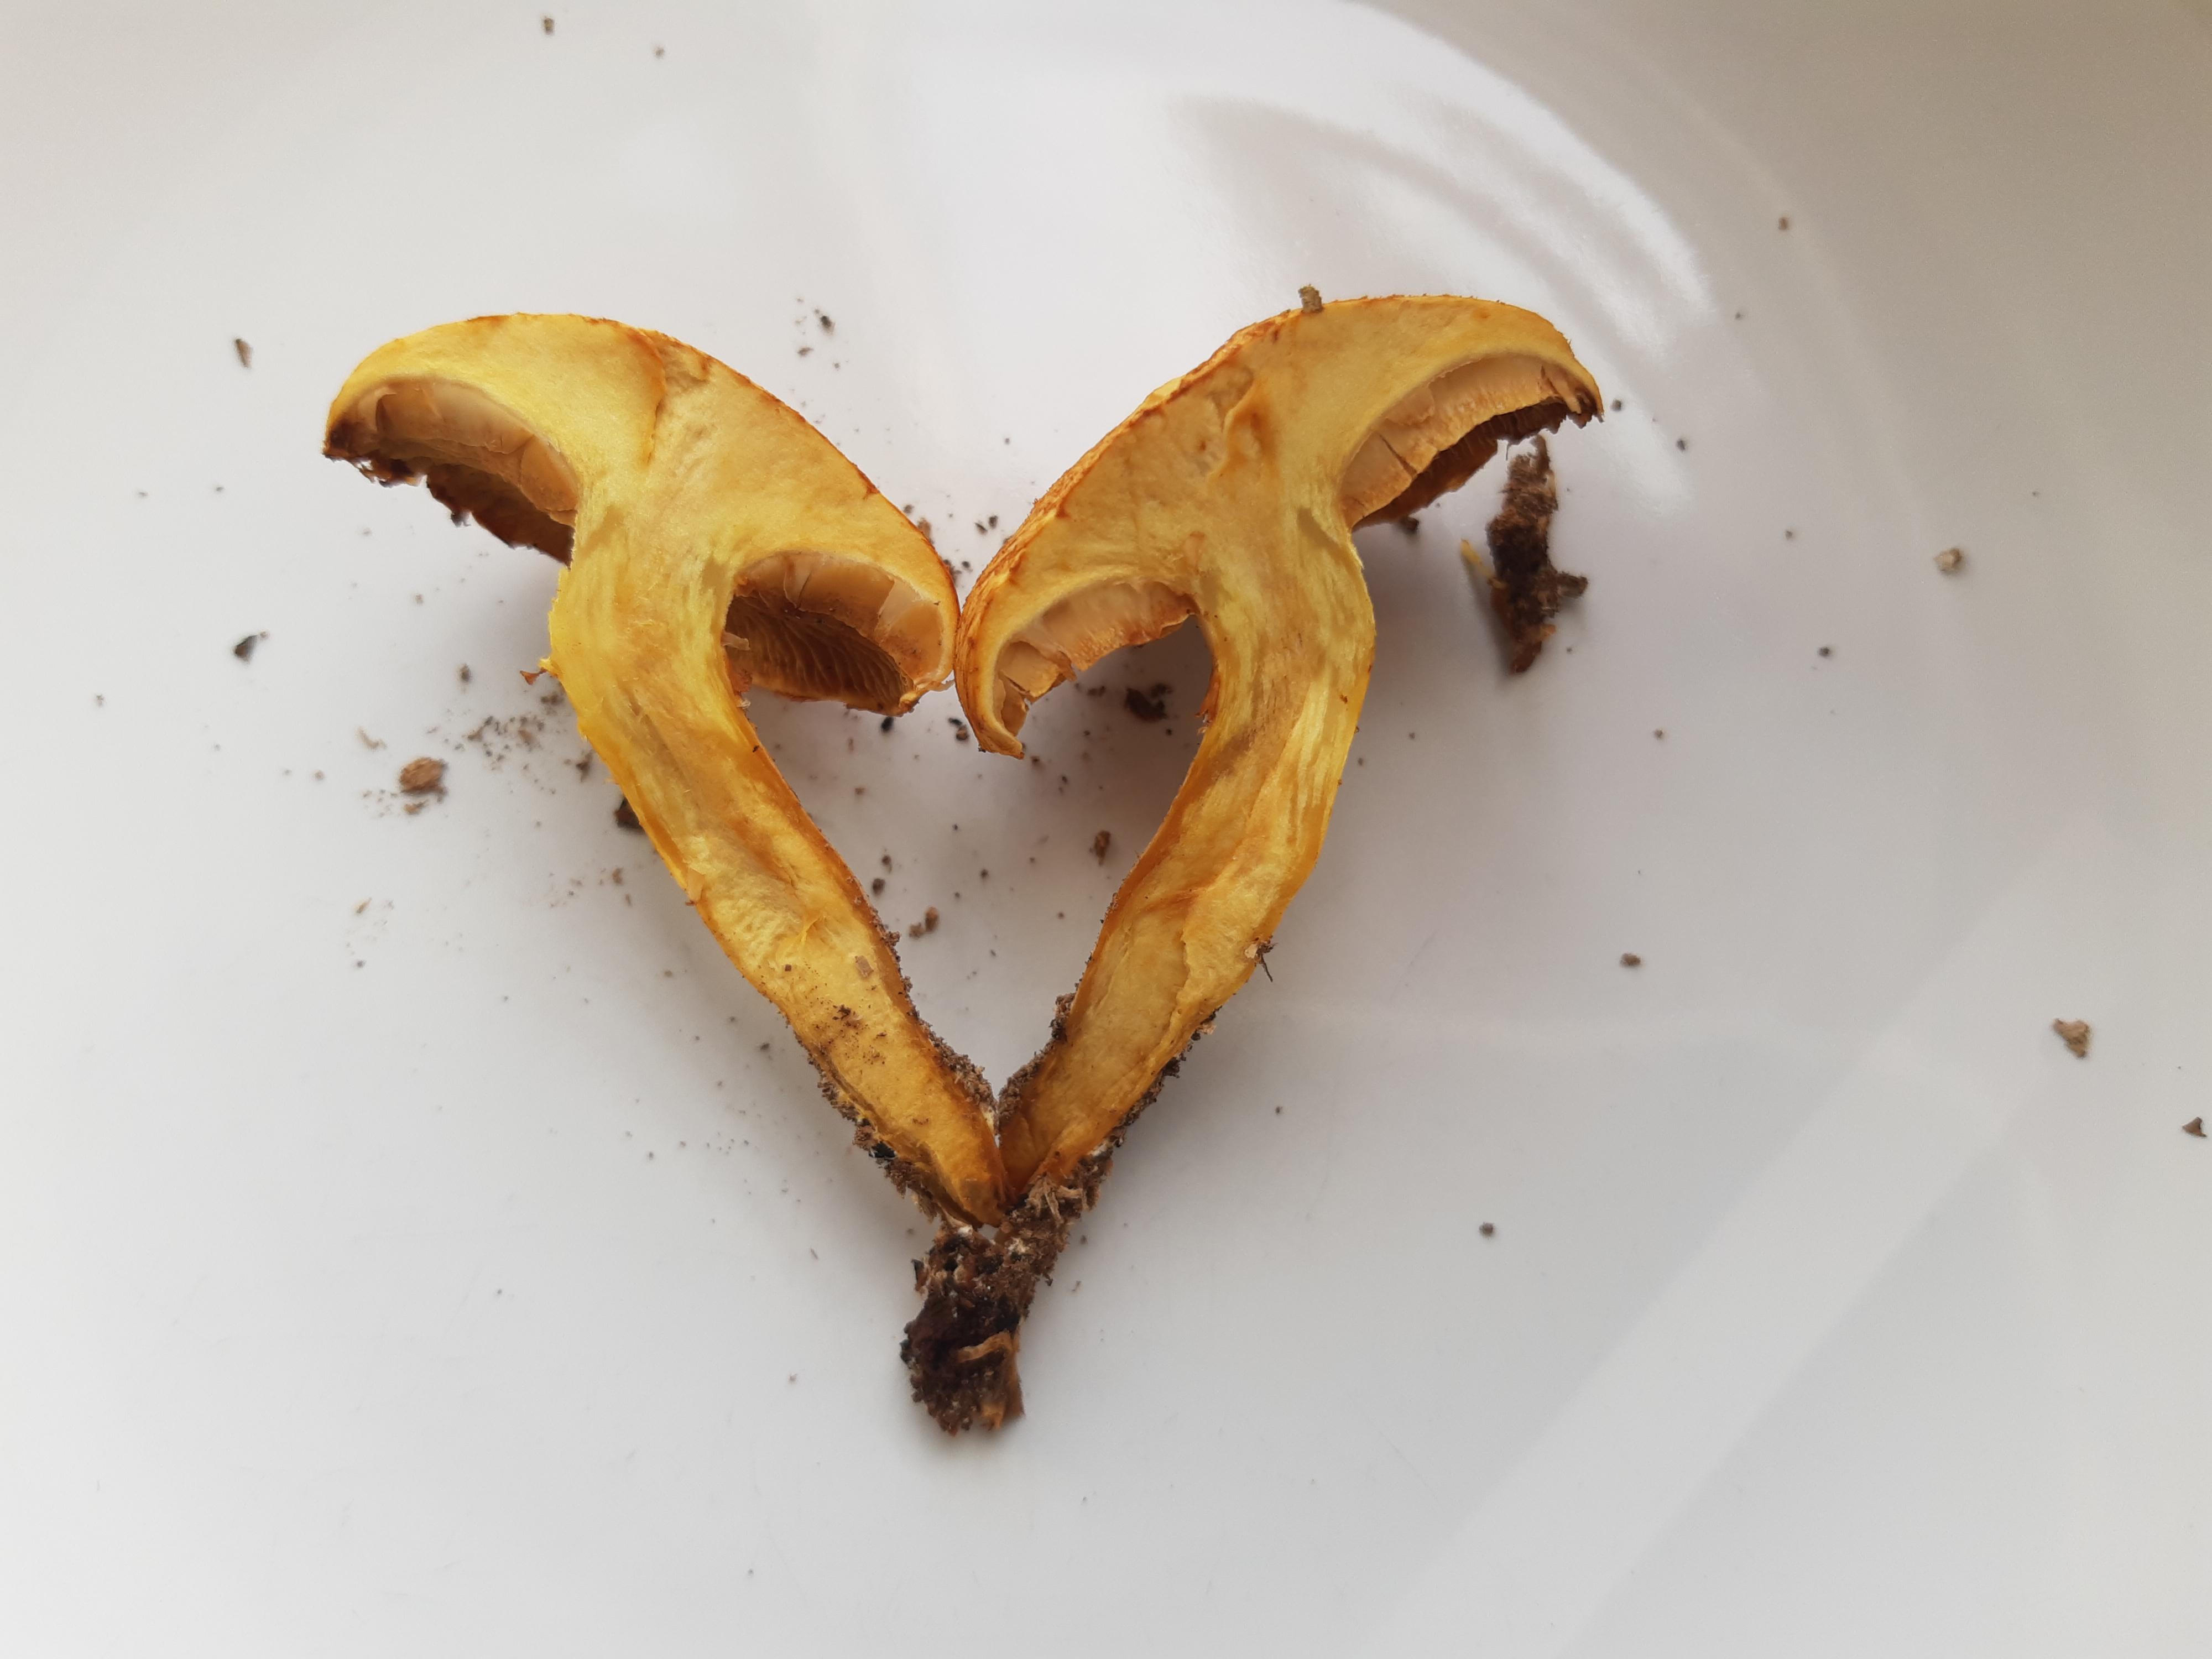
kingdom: Fungi
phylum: Basidiomycota
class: Agaricomycetes
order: Agaricales
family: Hymenogastraceae
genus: Gymnopilus
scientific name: Gymnopilus spectabilis
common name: fibret flammehat
